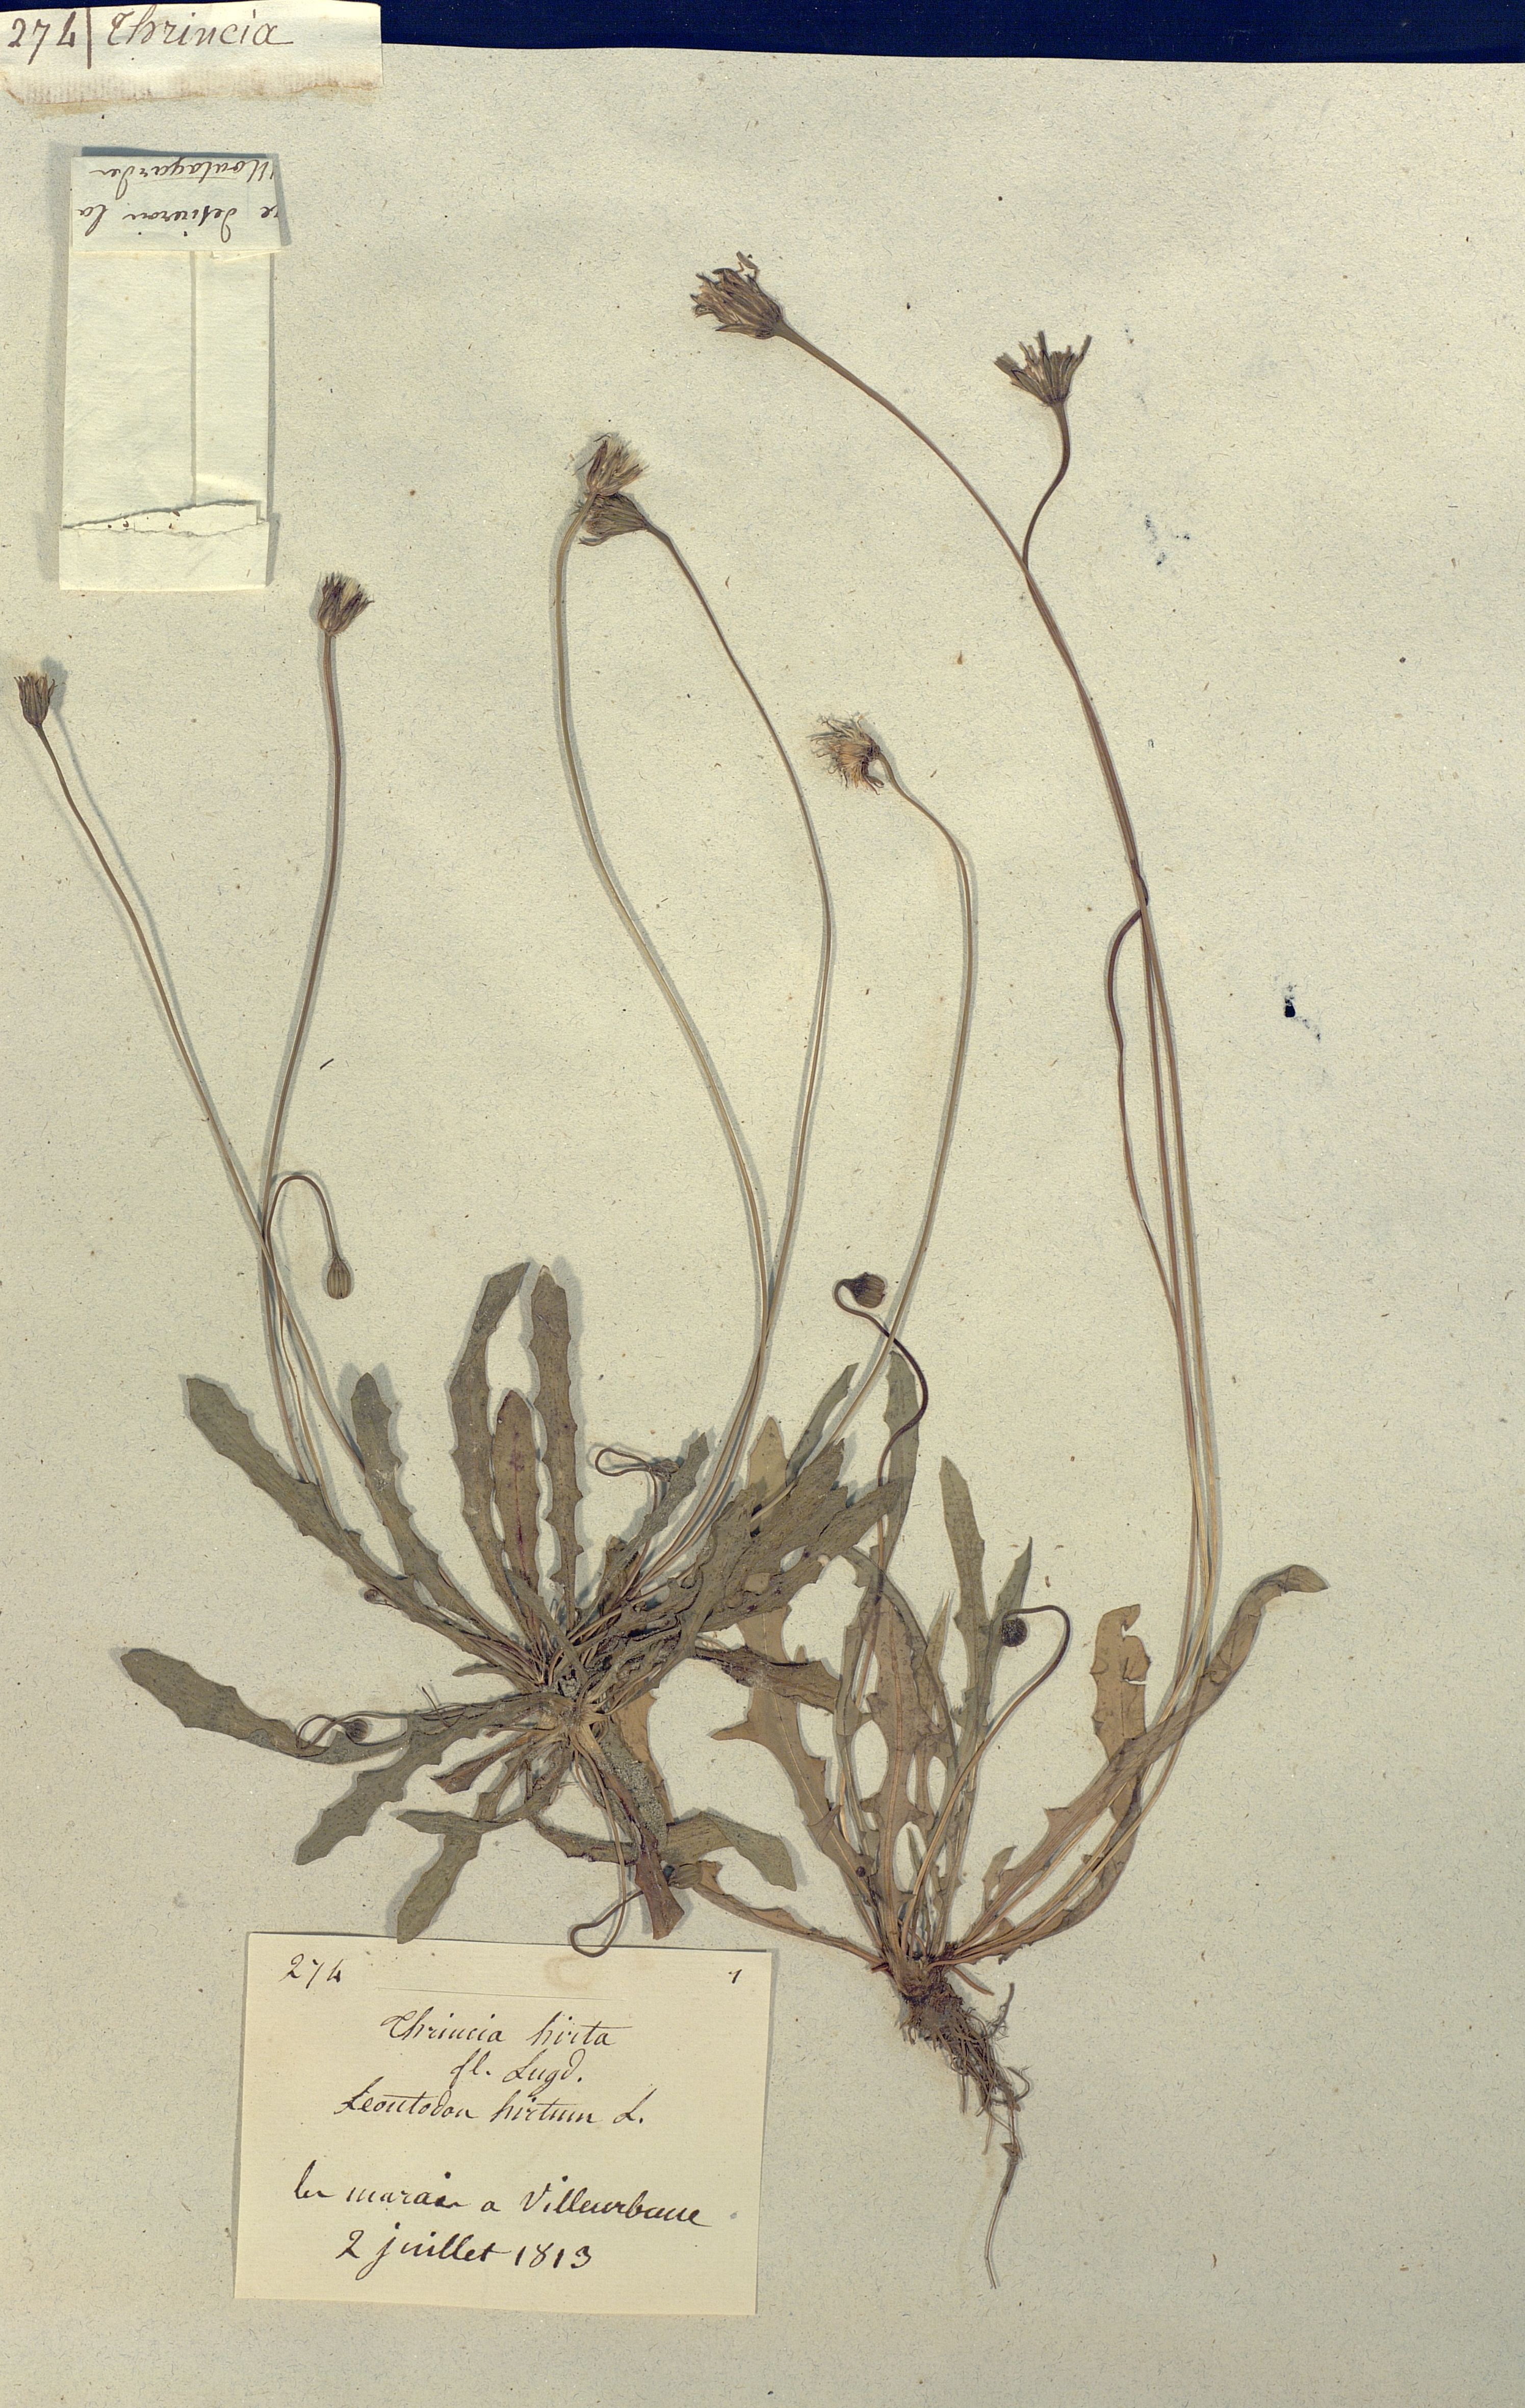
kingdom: Plantae
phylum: Tracheophyta
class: Magnoliopsida
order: Asterales
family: Asteraceae
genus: Thrincia
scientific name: Thrincia saxatilis
